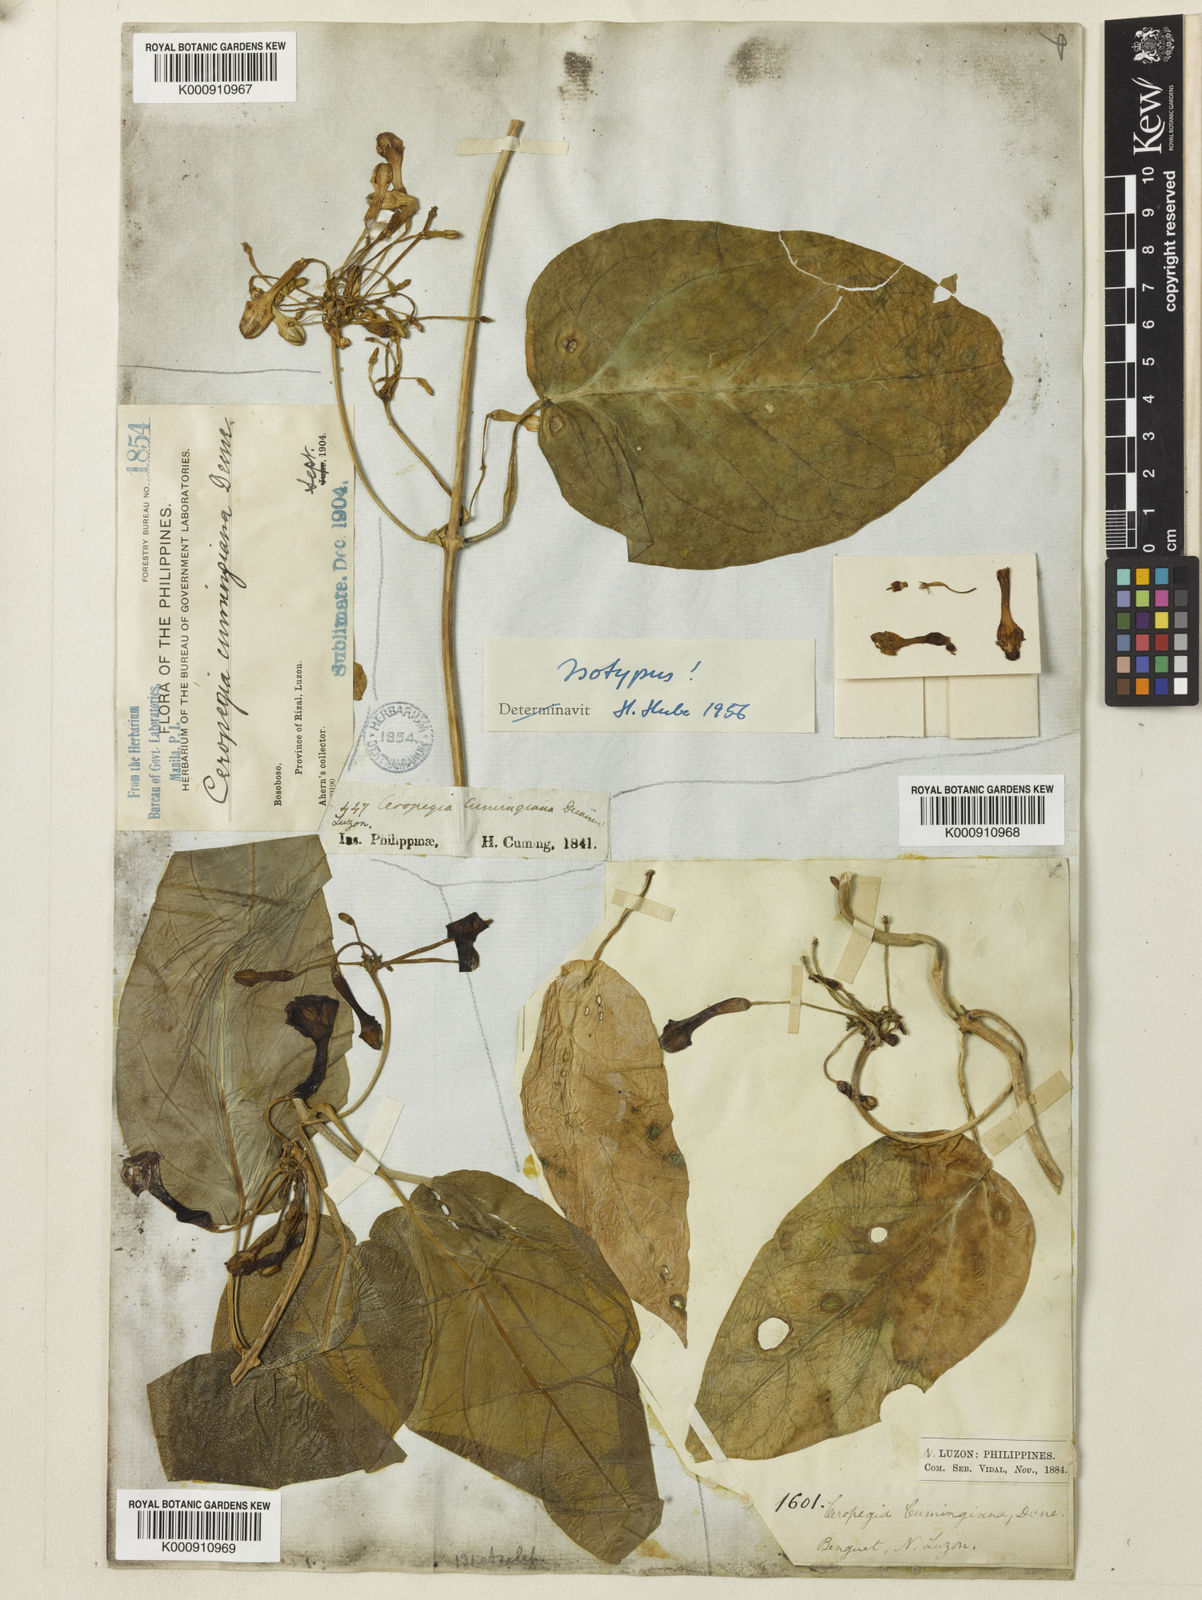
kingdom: Plantae
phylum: Tracheophyta
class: Magnoliopsida
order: Gentianales
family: Apocynaceae
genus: Ceropegia
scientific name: Ceropegia cumingiana
